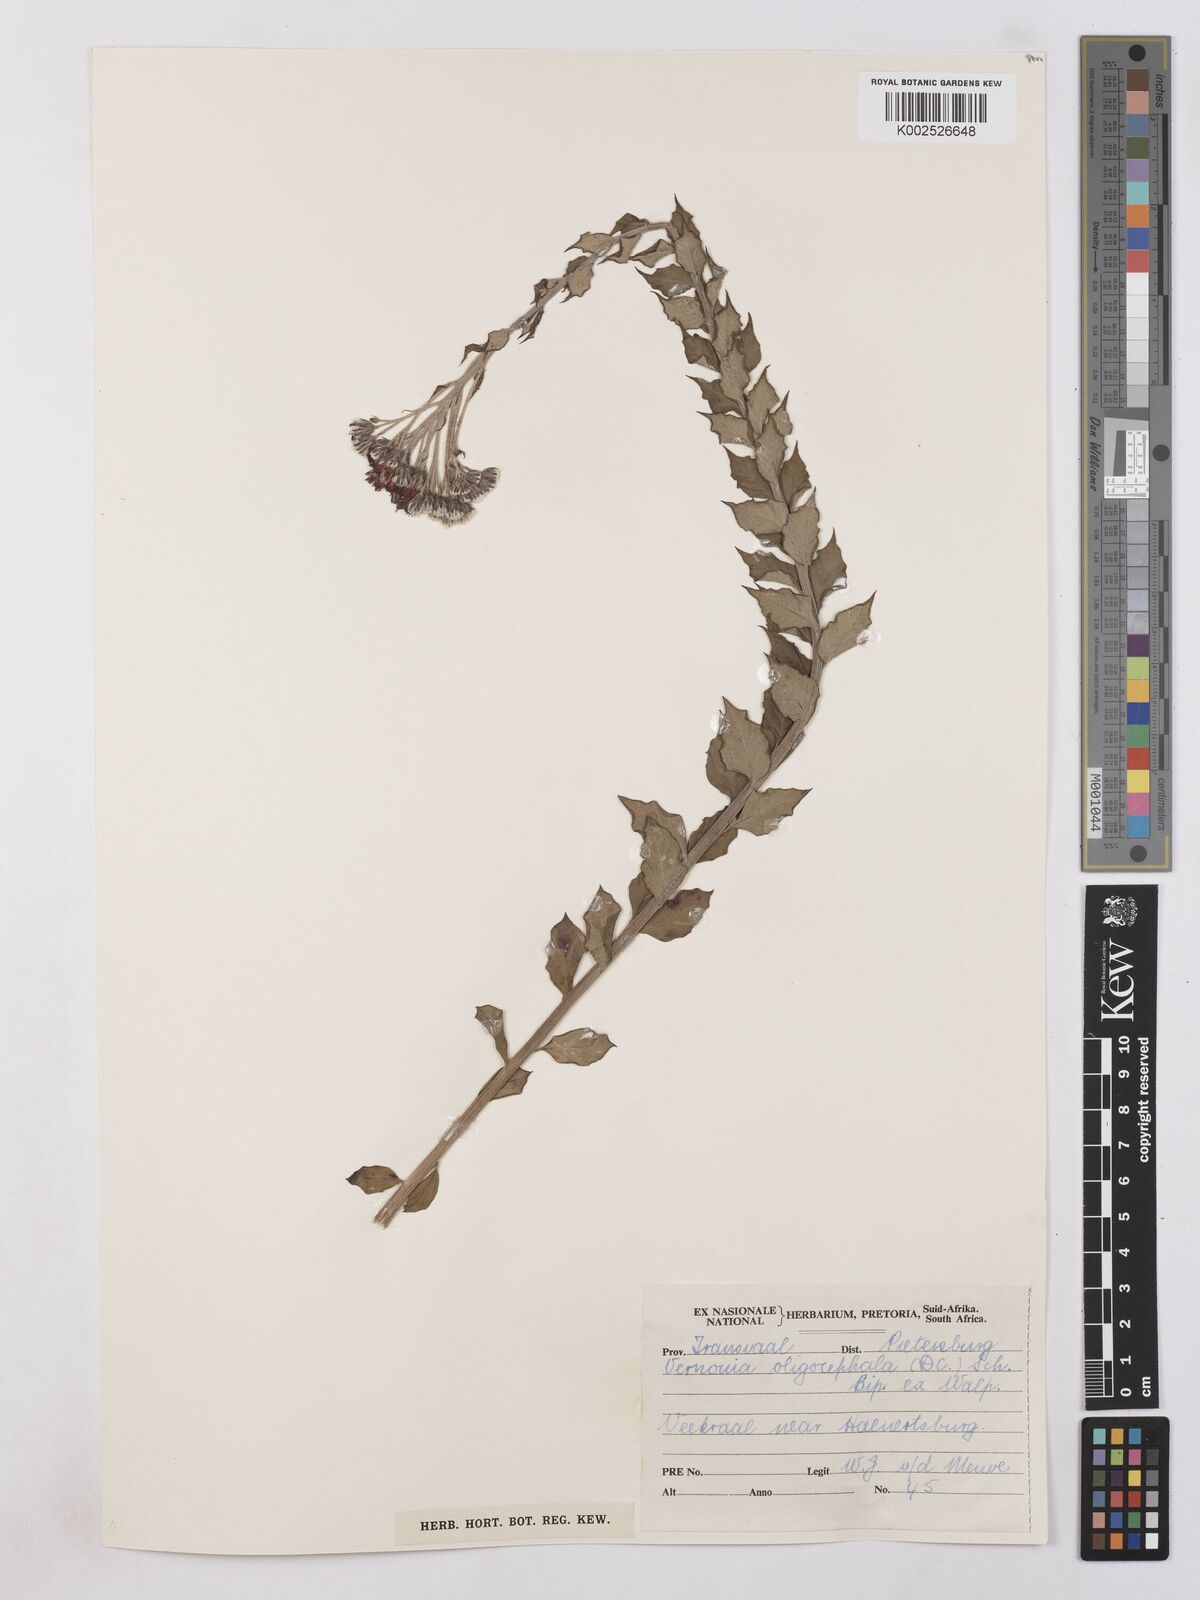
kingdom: Plantae
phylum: Tracheophyta
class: Magnoliopsida
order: Asterales
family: Asteraceae
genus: Hilliardiella
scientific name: Hilliardiella oligocephala
